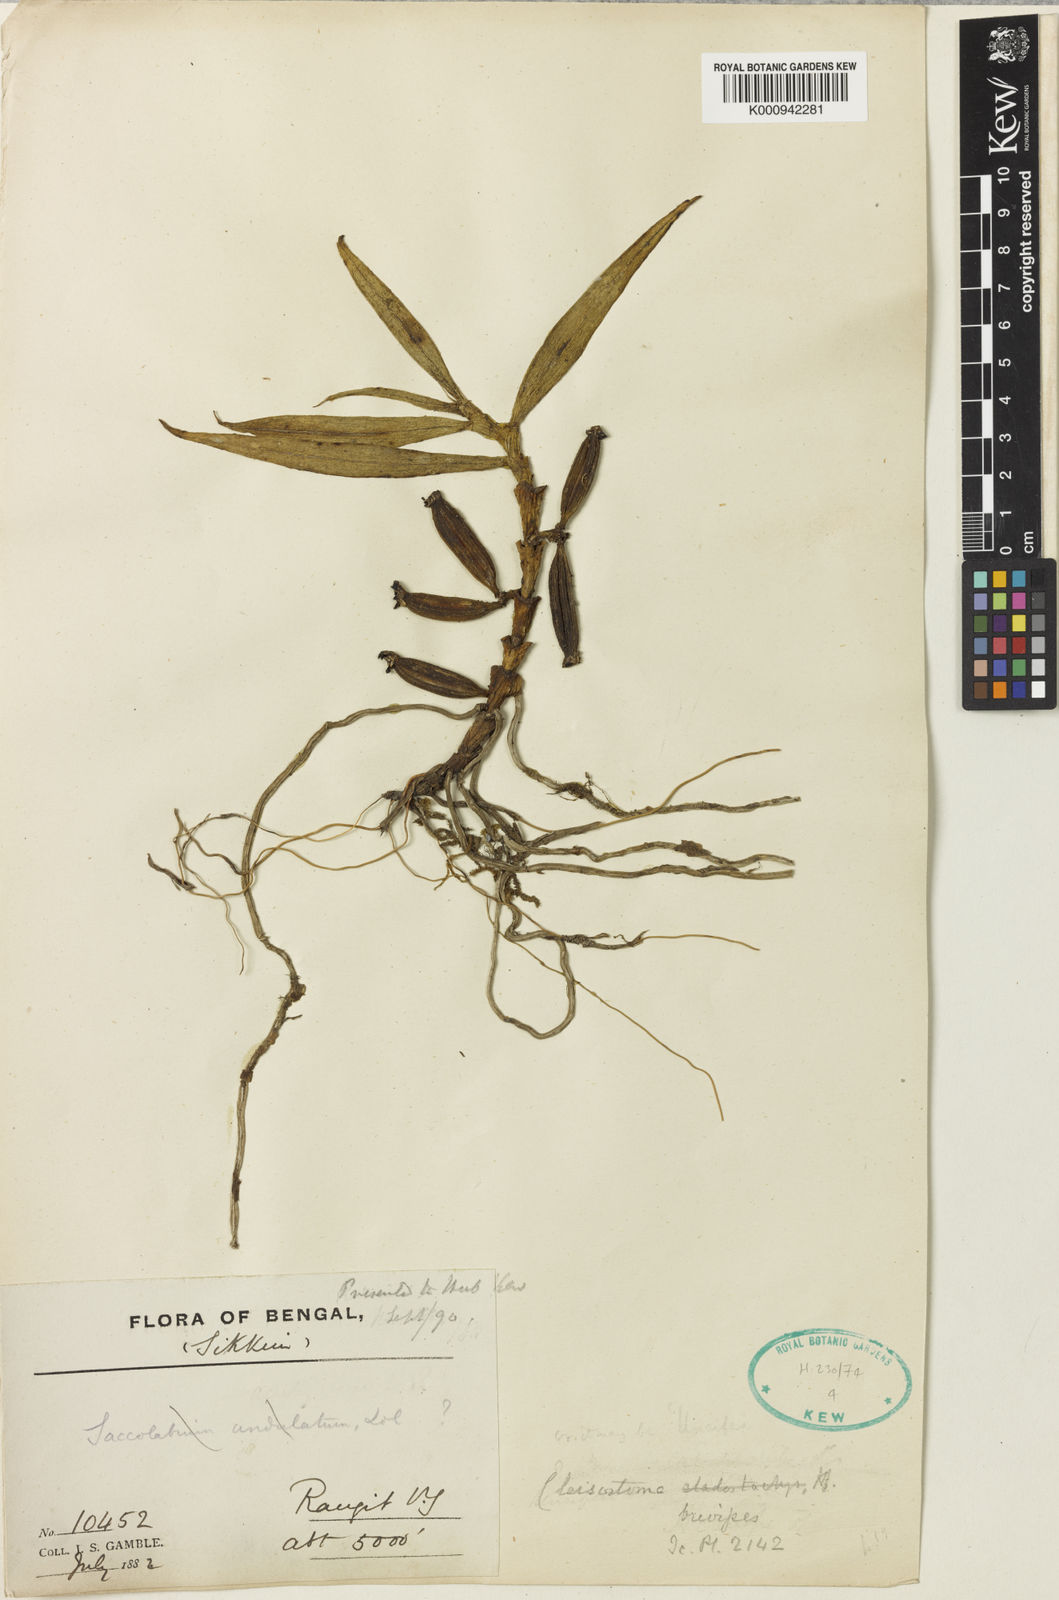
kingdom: Plantae
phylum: Tracheophyta
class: Liliopsida
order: Asparagales
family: Orchidaceae
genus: Cleisostoma
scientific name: Cleisostoma striatum
